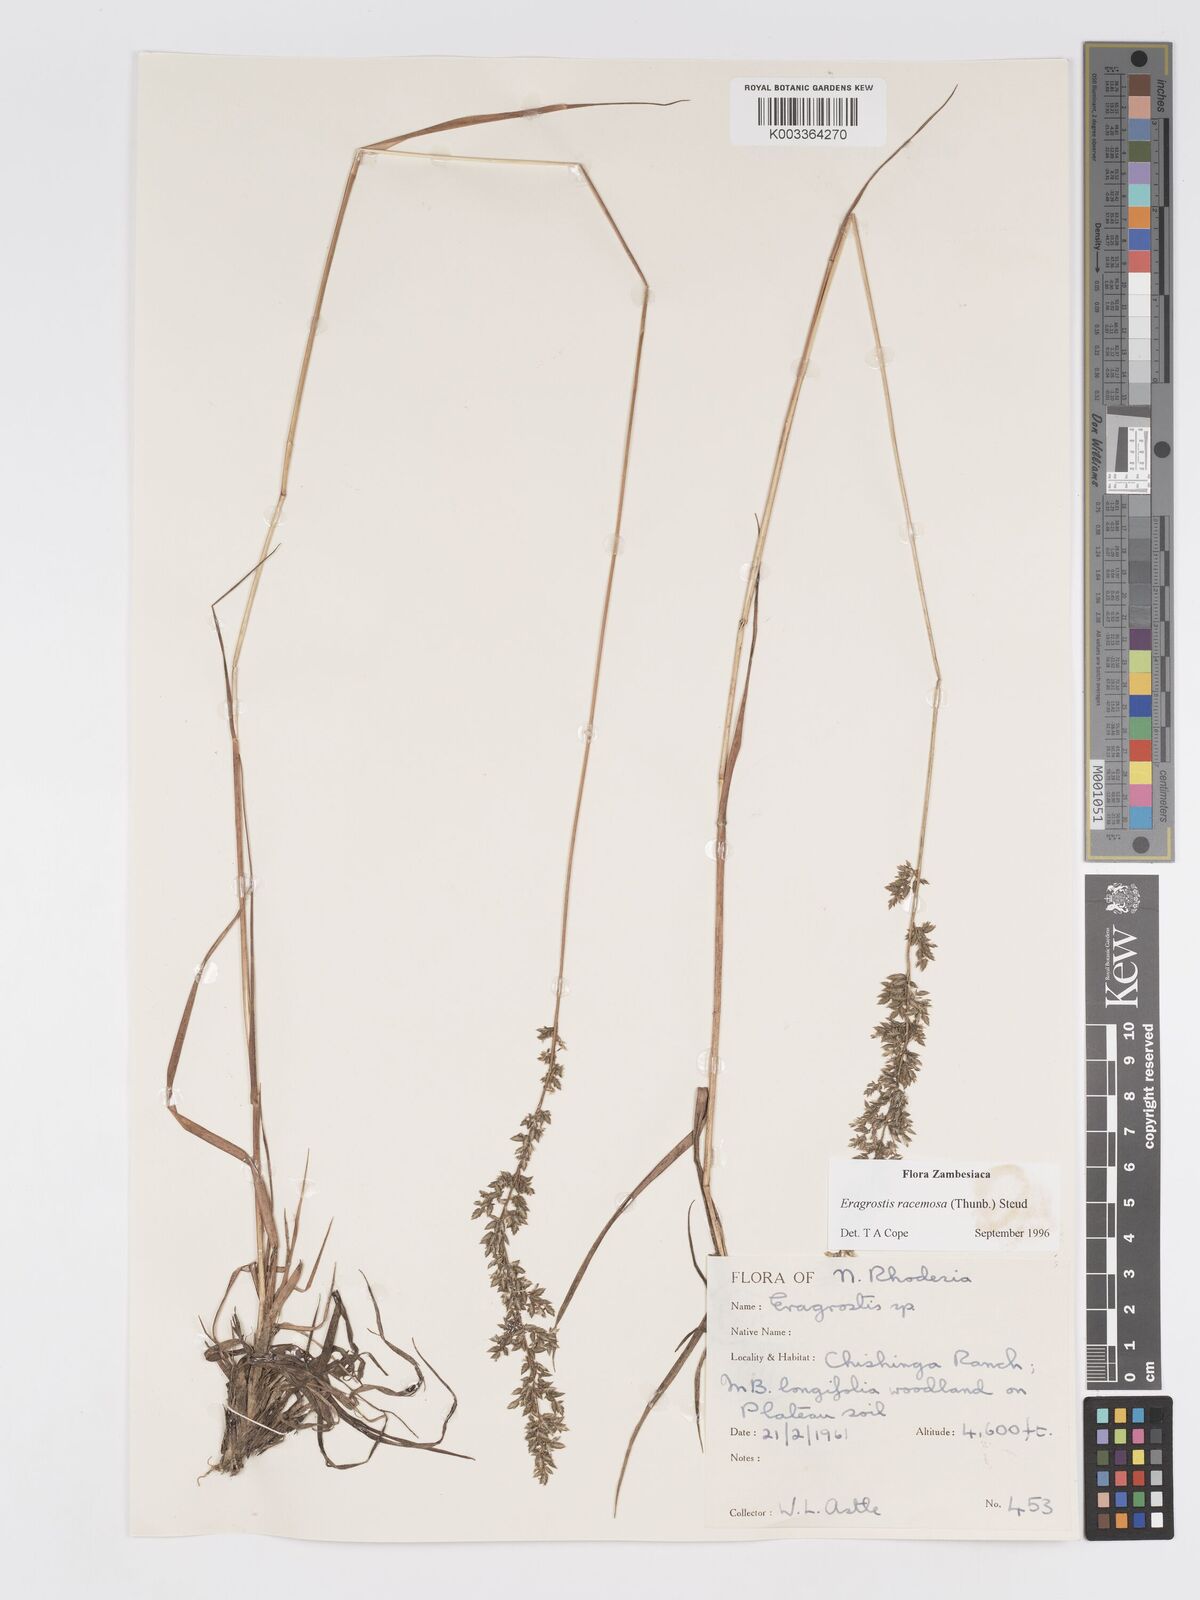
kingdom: Plantae
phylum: Tracheophyta
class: Liliopsida
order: Poales
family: Poaceae
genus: Eragrostis
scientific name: Eragrostis racemosa
